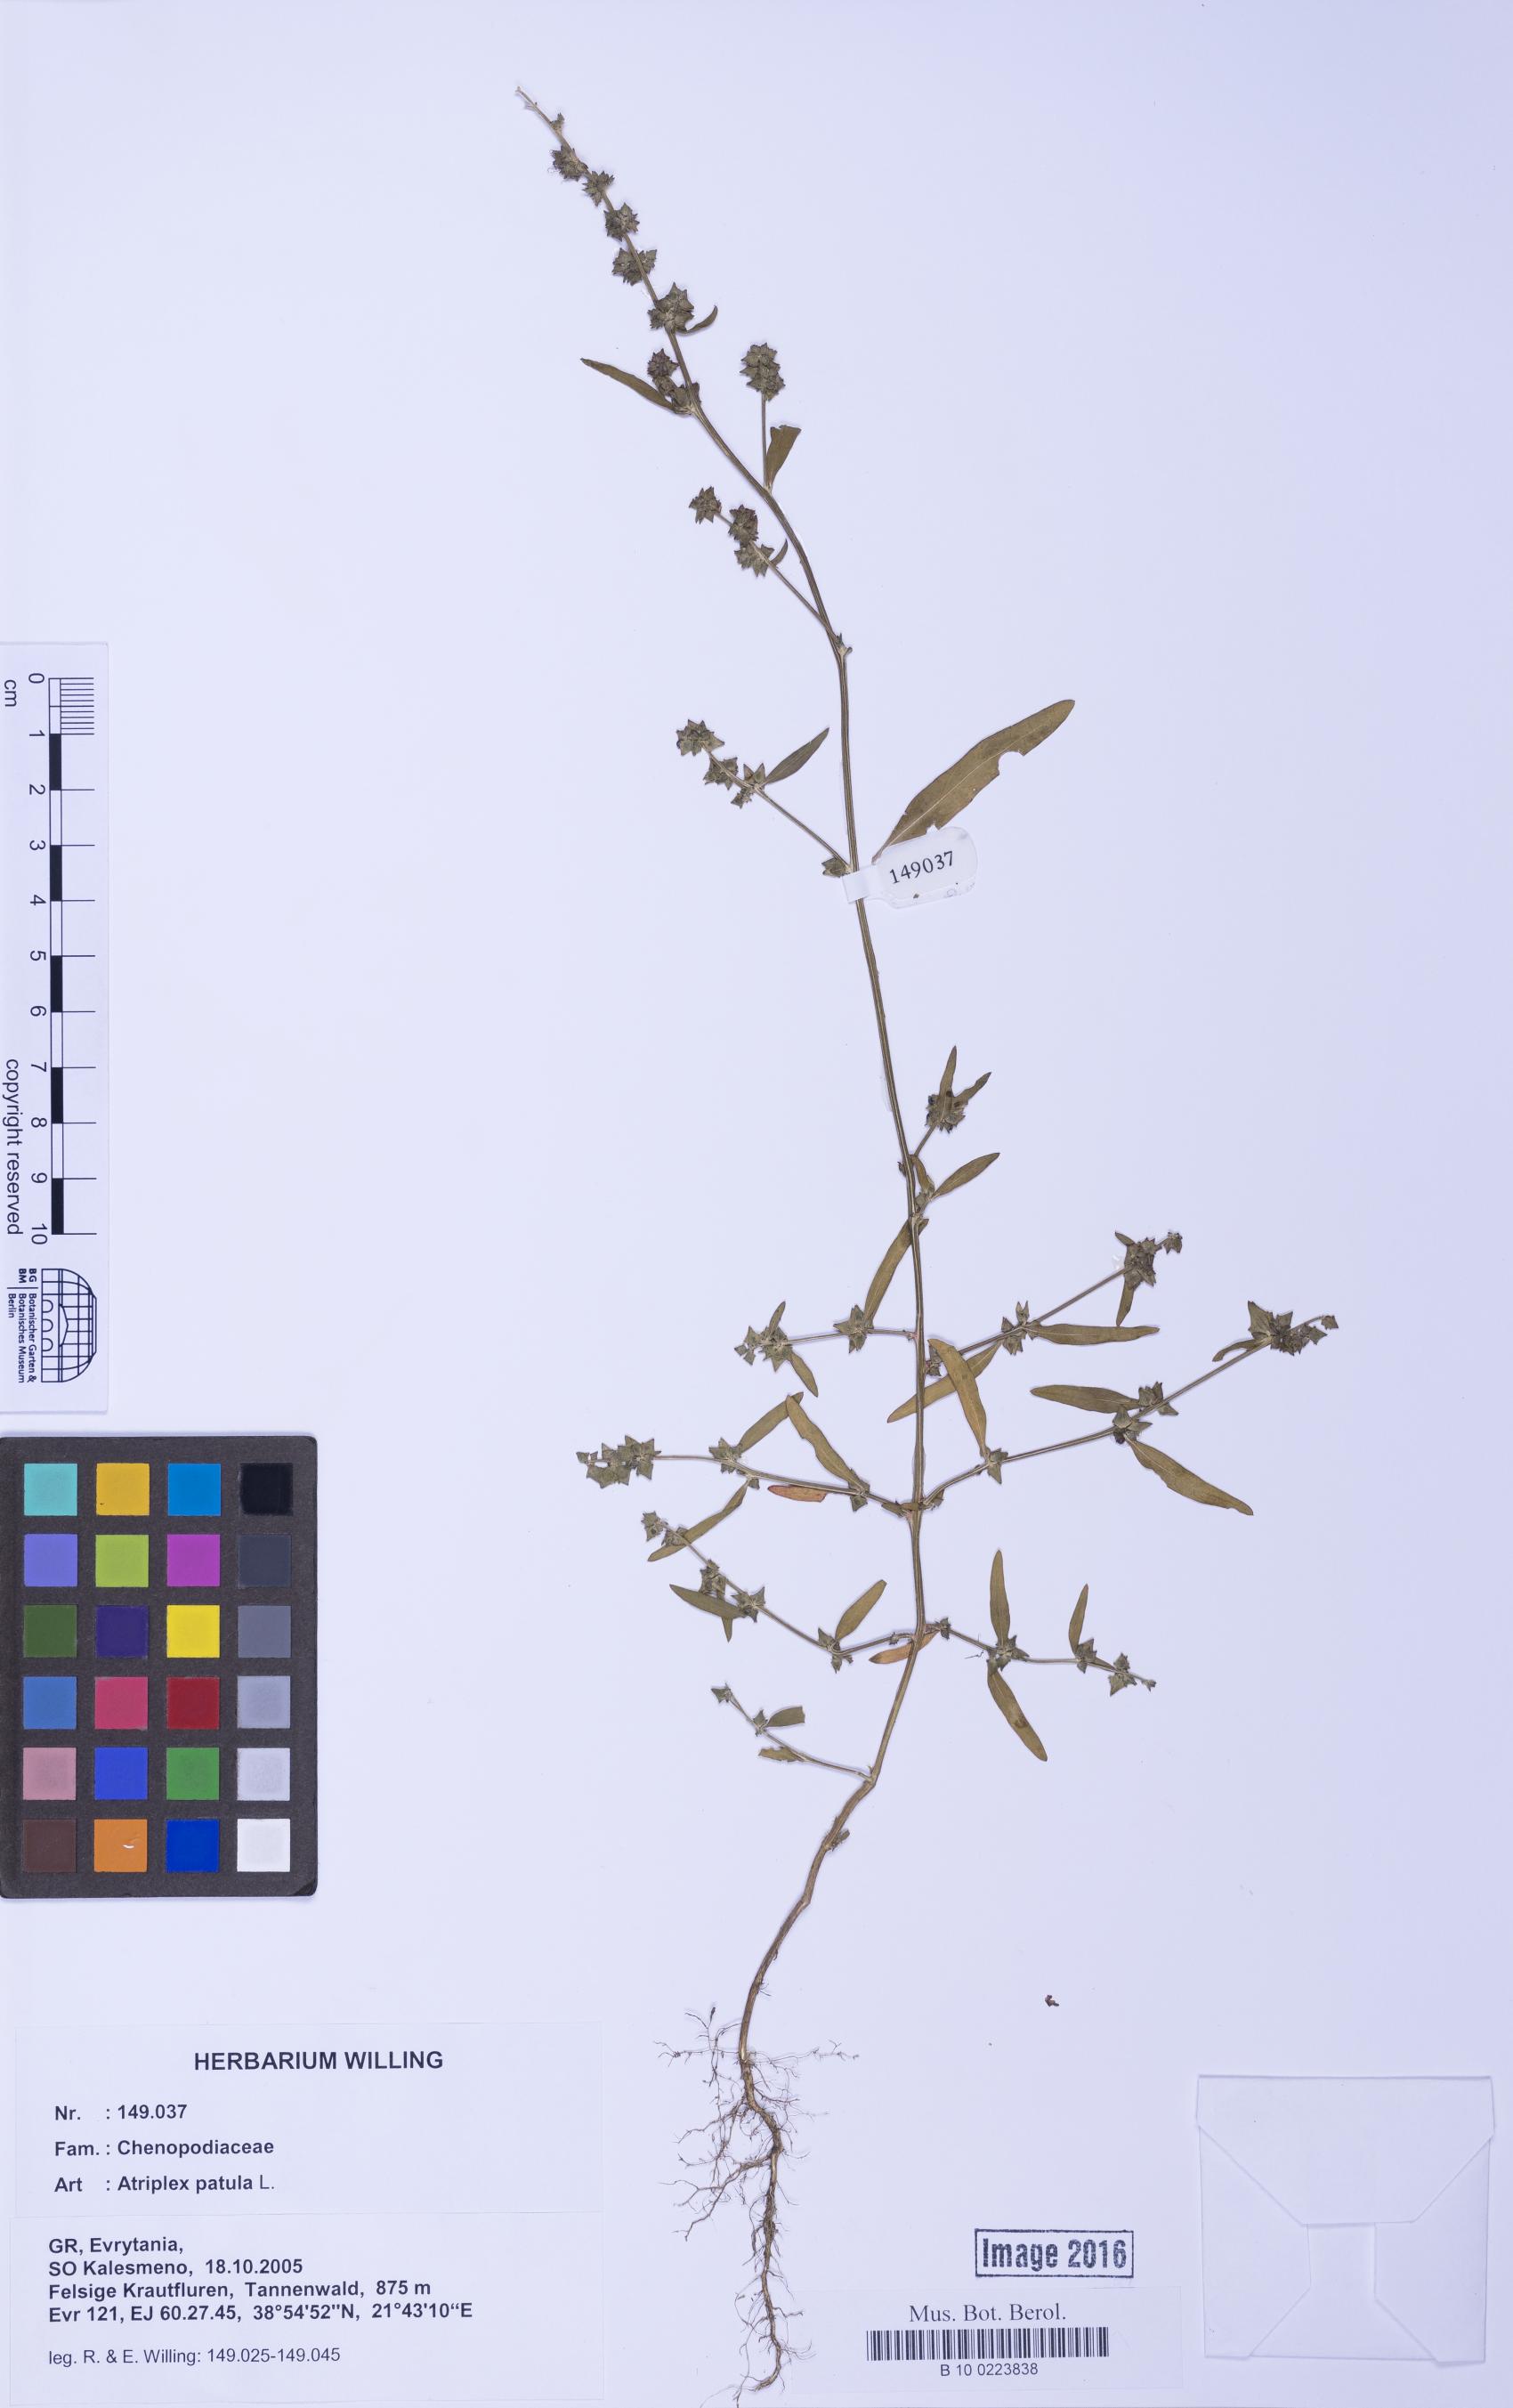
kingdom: Plantae
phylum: Tracheophyta
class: Magnoliopsida
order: Caryophyllales
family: Amaranthaceae
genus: Atriplex
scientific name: Atriplex patula
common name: Common orache
